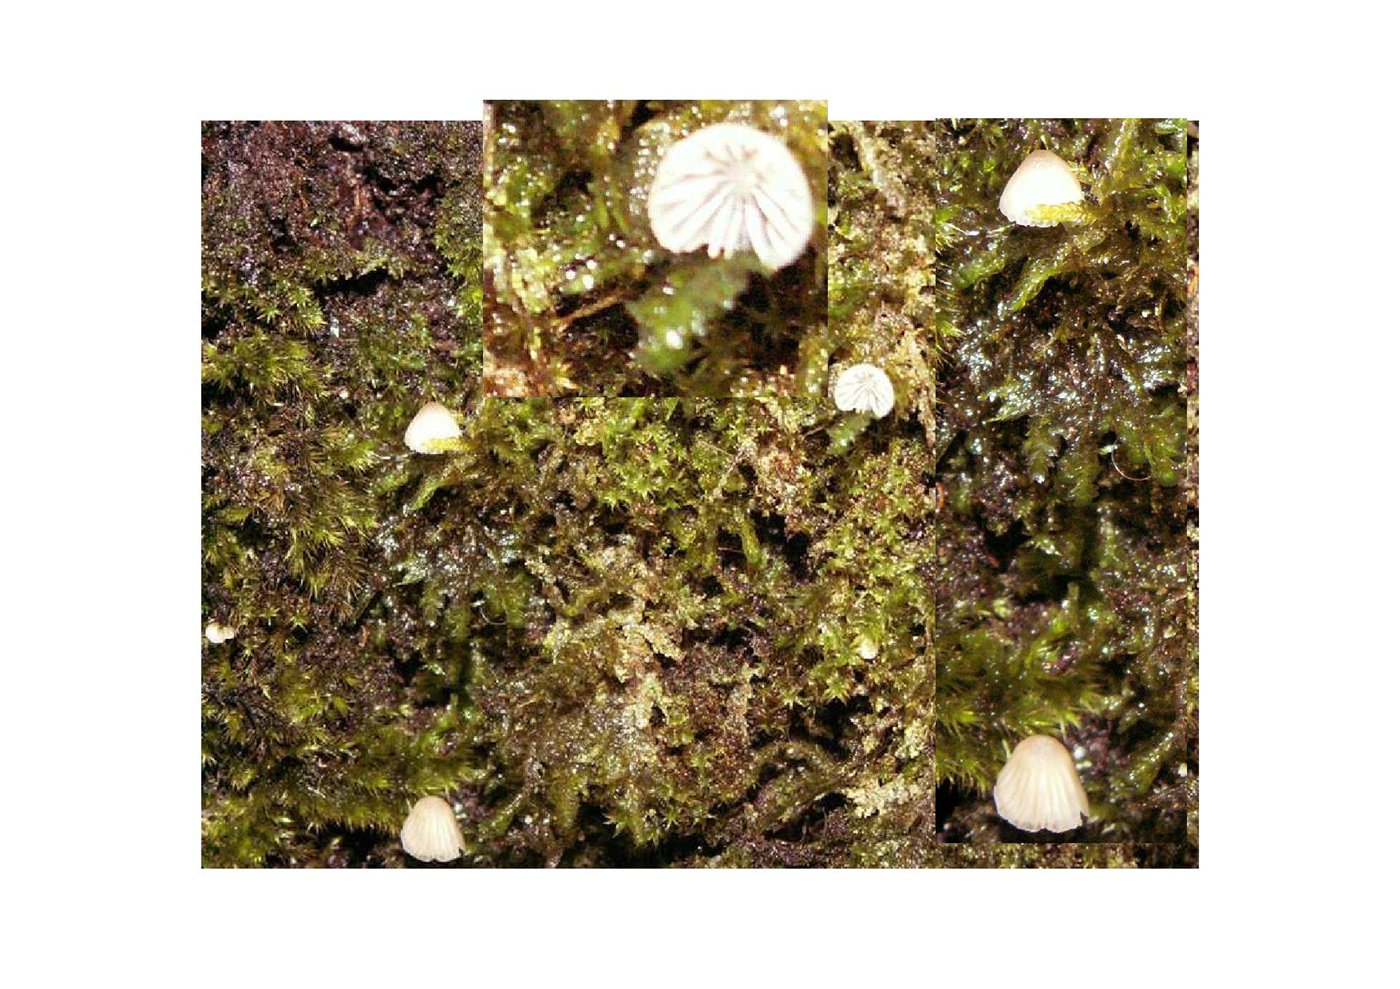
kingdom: Fungi
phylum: Basidiomycota
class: Agaricomycetes
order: Agaricales
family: Porotheleaceae
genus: Phloeomana
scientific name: Phloeomana hiemalis
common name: sen huesvamp
